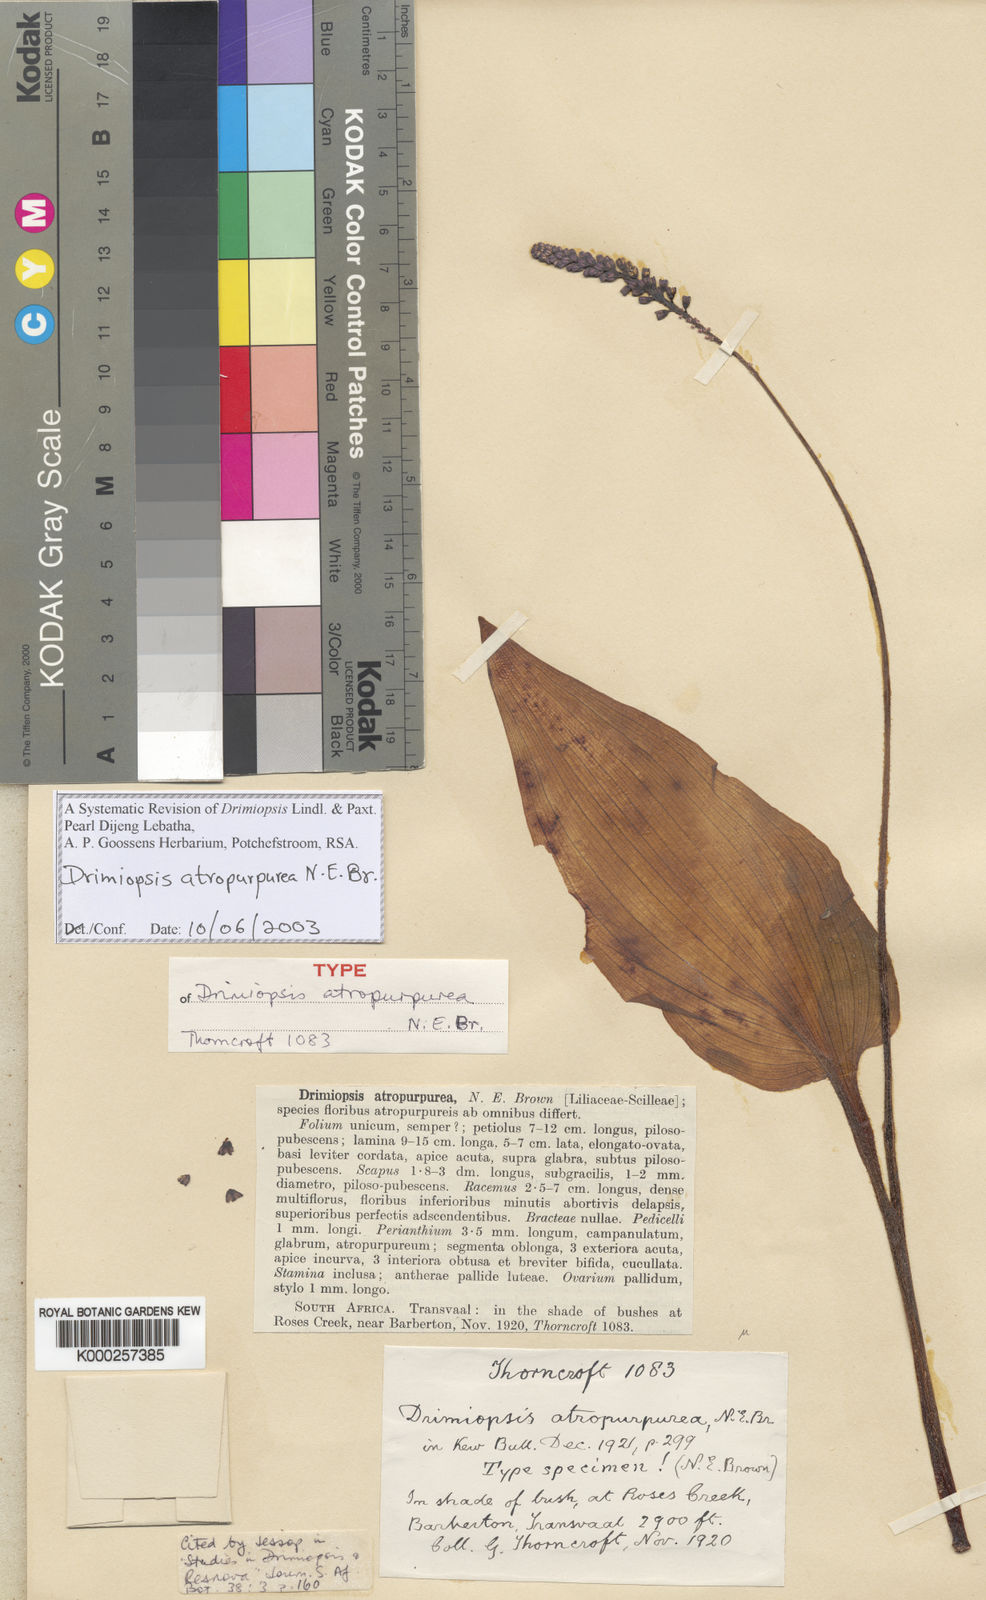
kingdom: Plantae
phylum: Tracheophyta
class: Liliopsida
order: Asparagales
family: Asparagaceae
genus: Drimiopsis
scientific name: Drimiopsis atropurpurea
